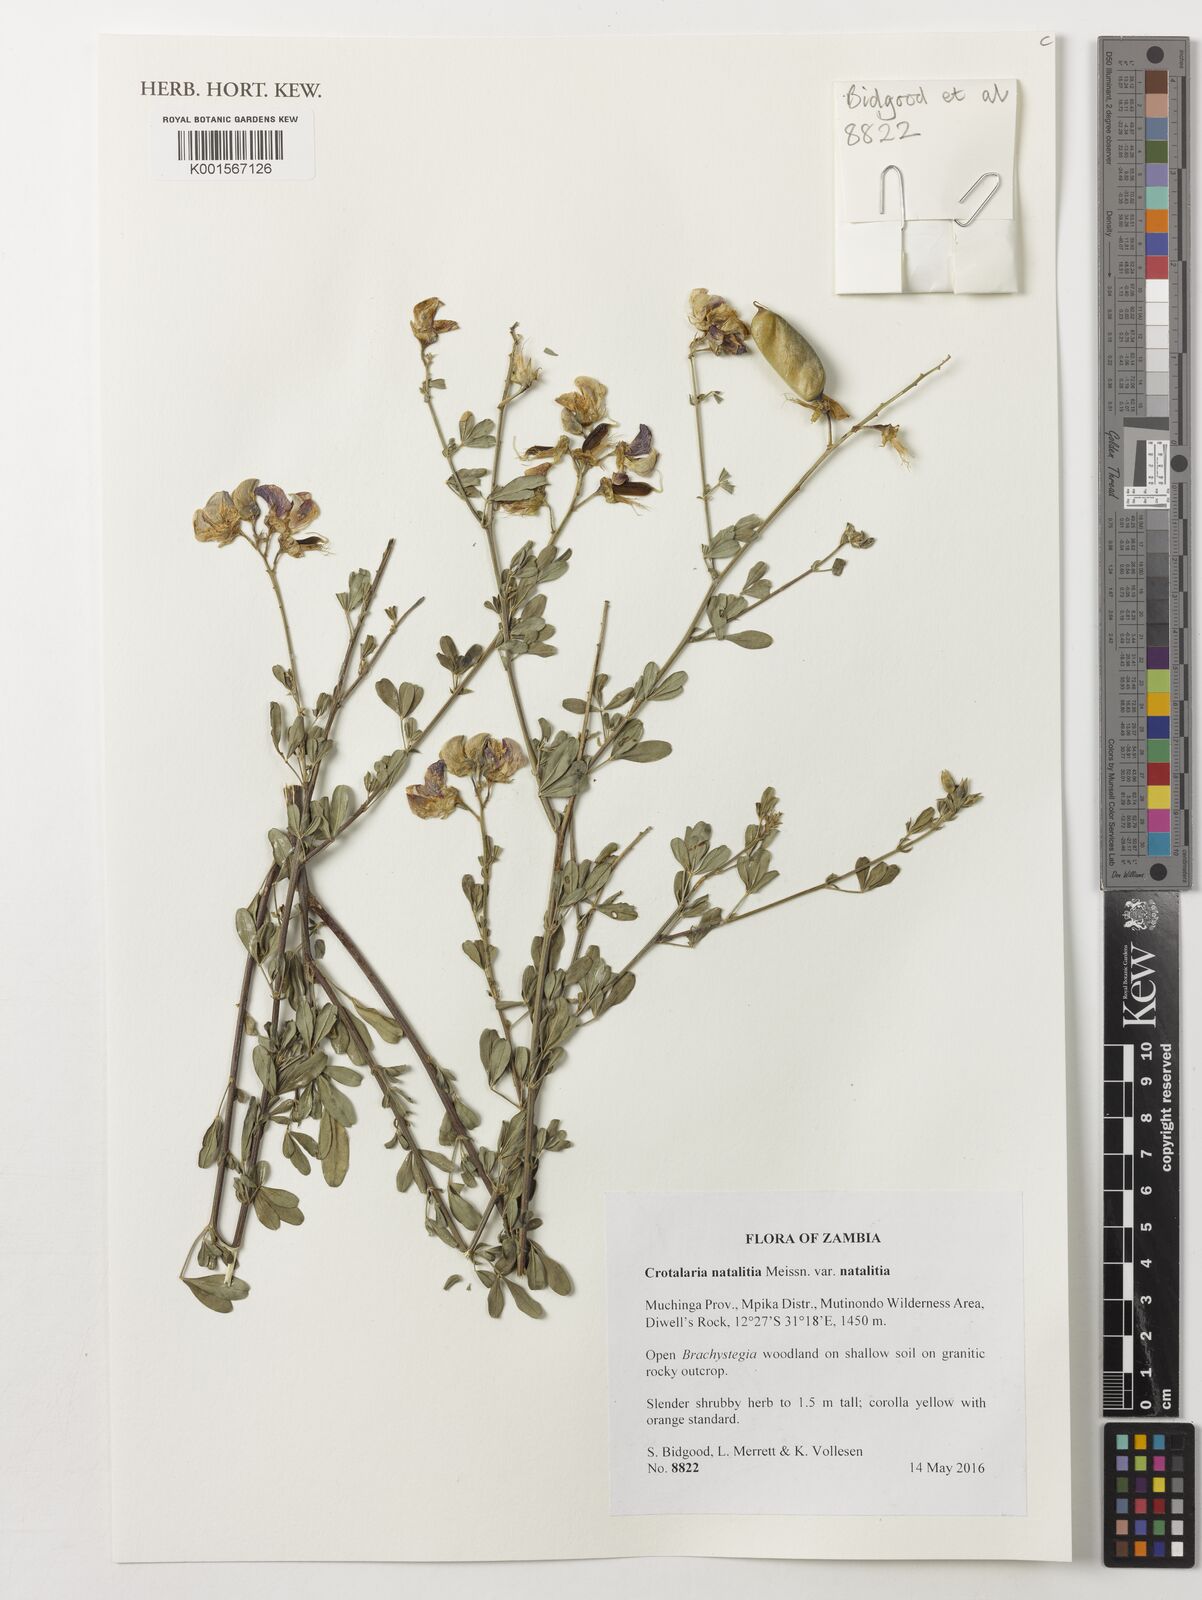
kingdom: Plantae
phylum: Tracheophyta
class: Magnoliopsida
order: Fabales
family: Fabaceae
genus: Crotalaria
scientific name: Crotalaria natalitia
